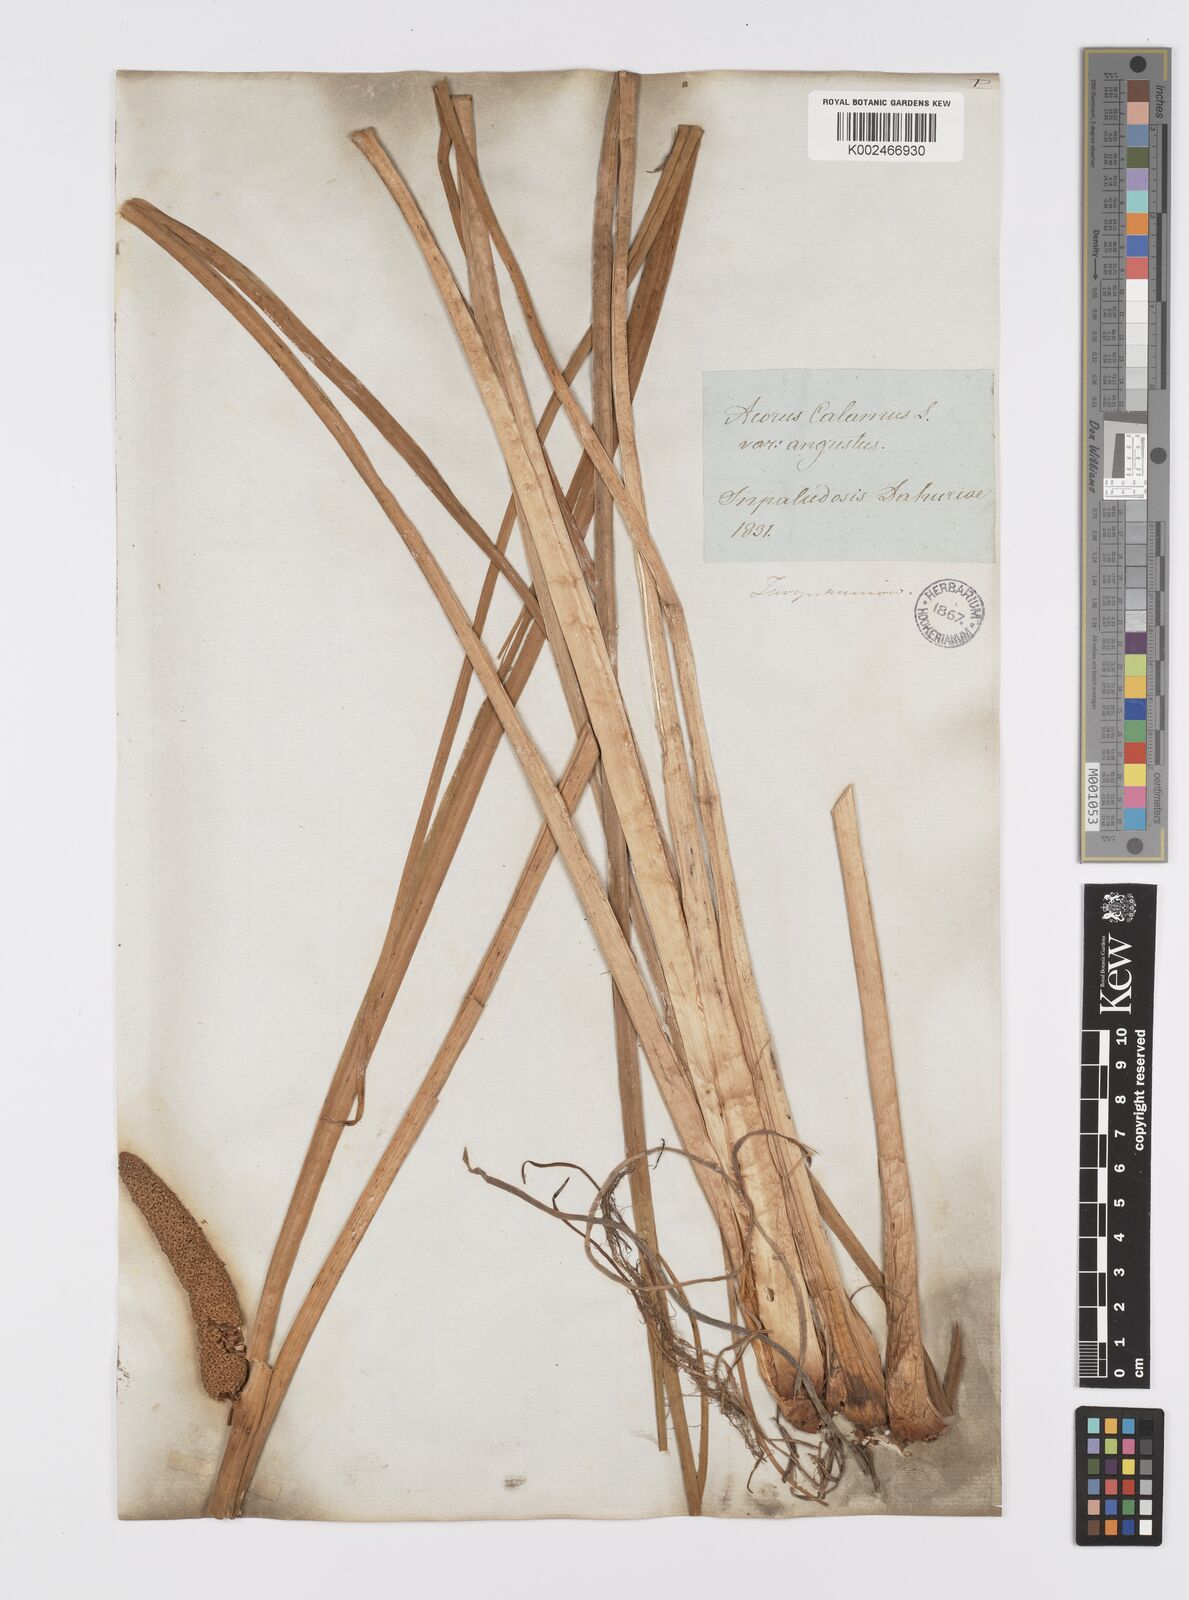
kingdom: Plantae
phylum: Tracheophyta
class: Liliopsida
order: Acorales
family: Acoraceae
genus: Acorus
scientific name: Acorus calamus
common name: Sweet-flag
